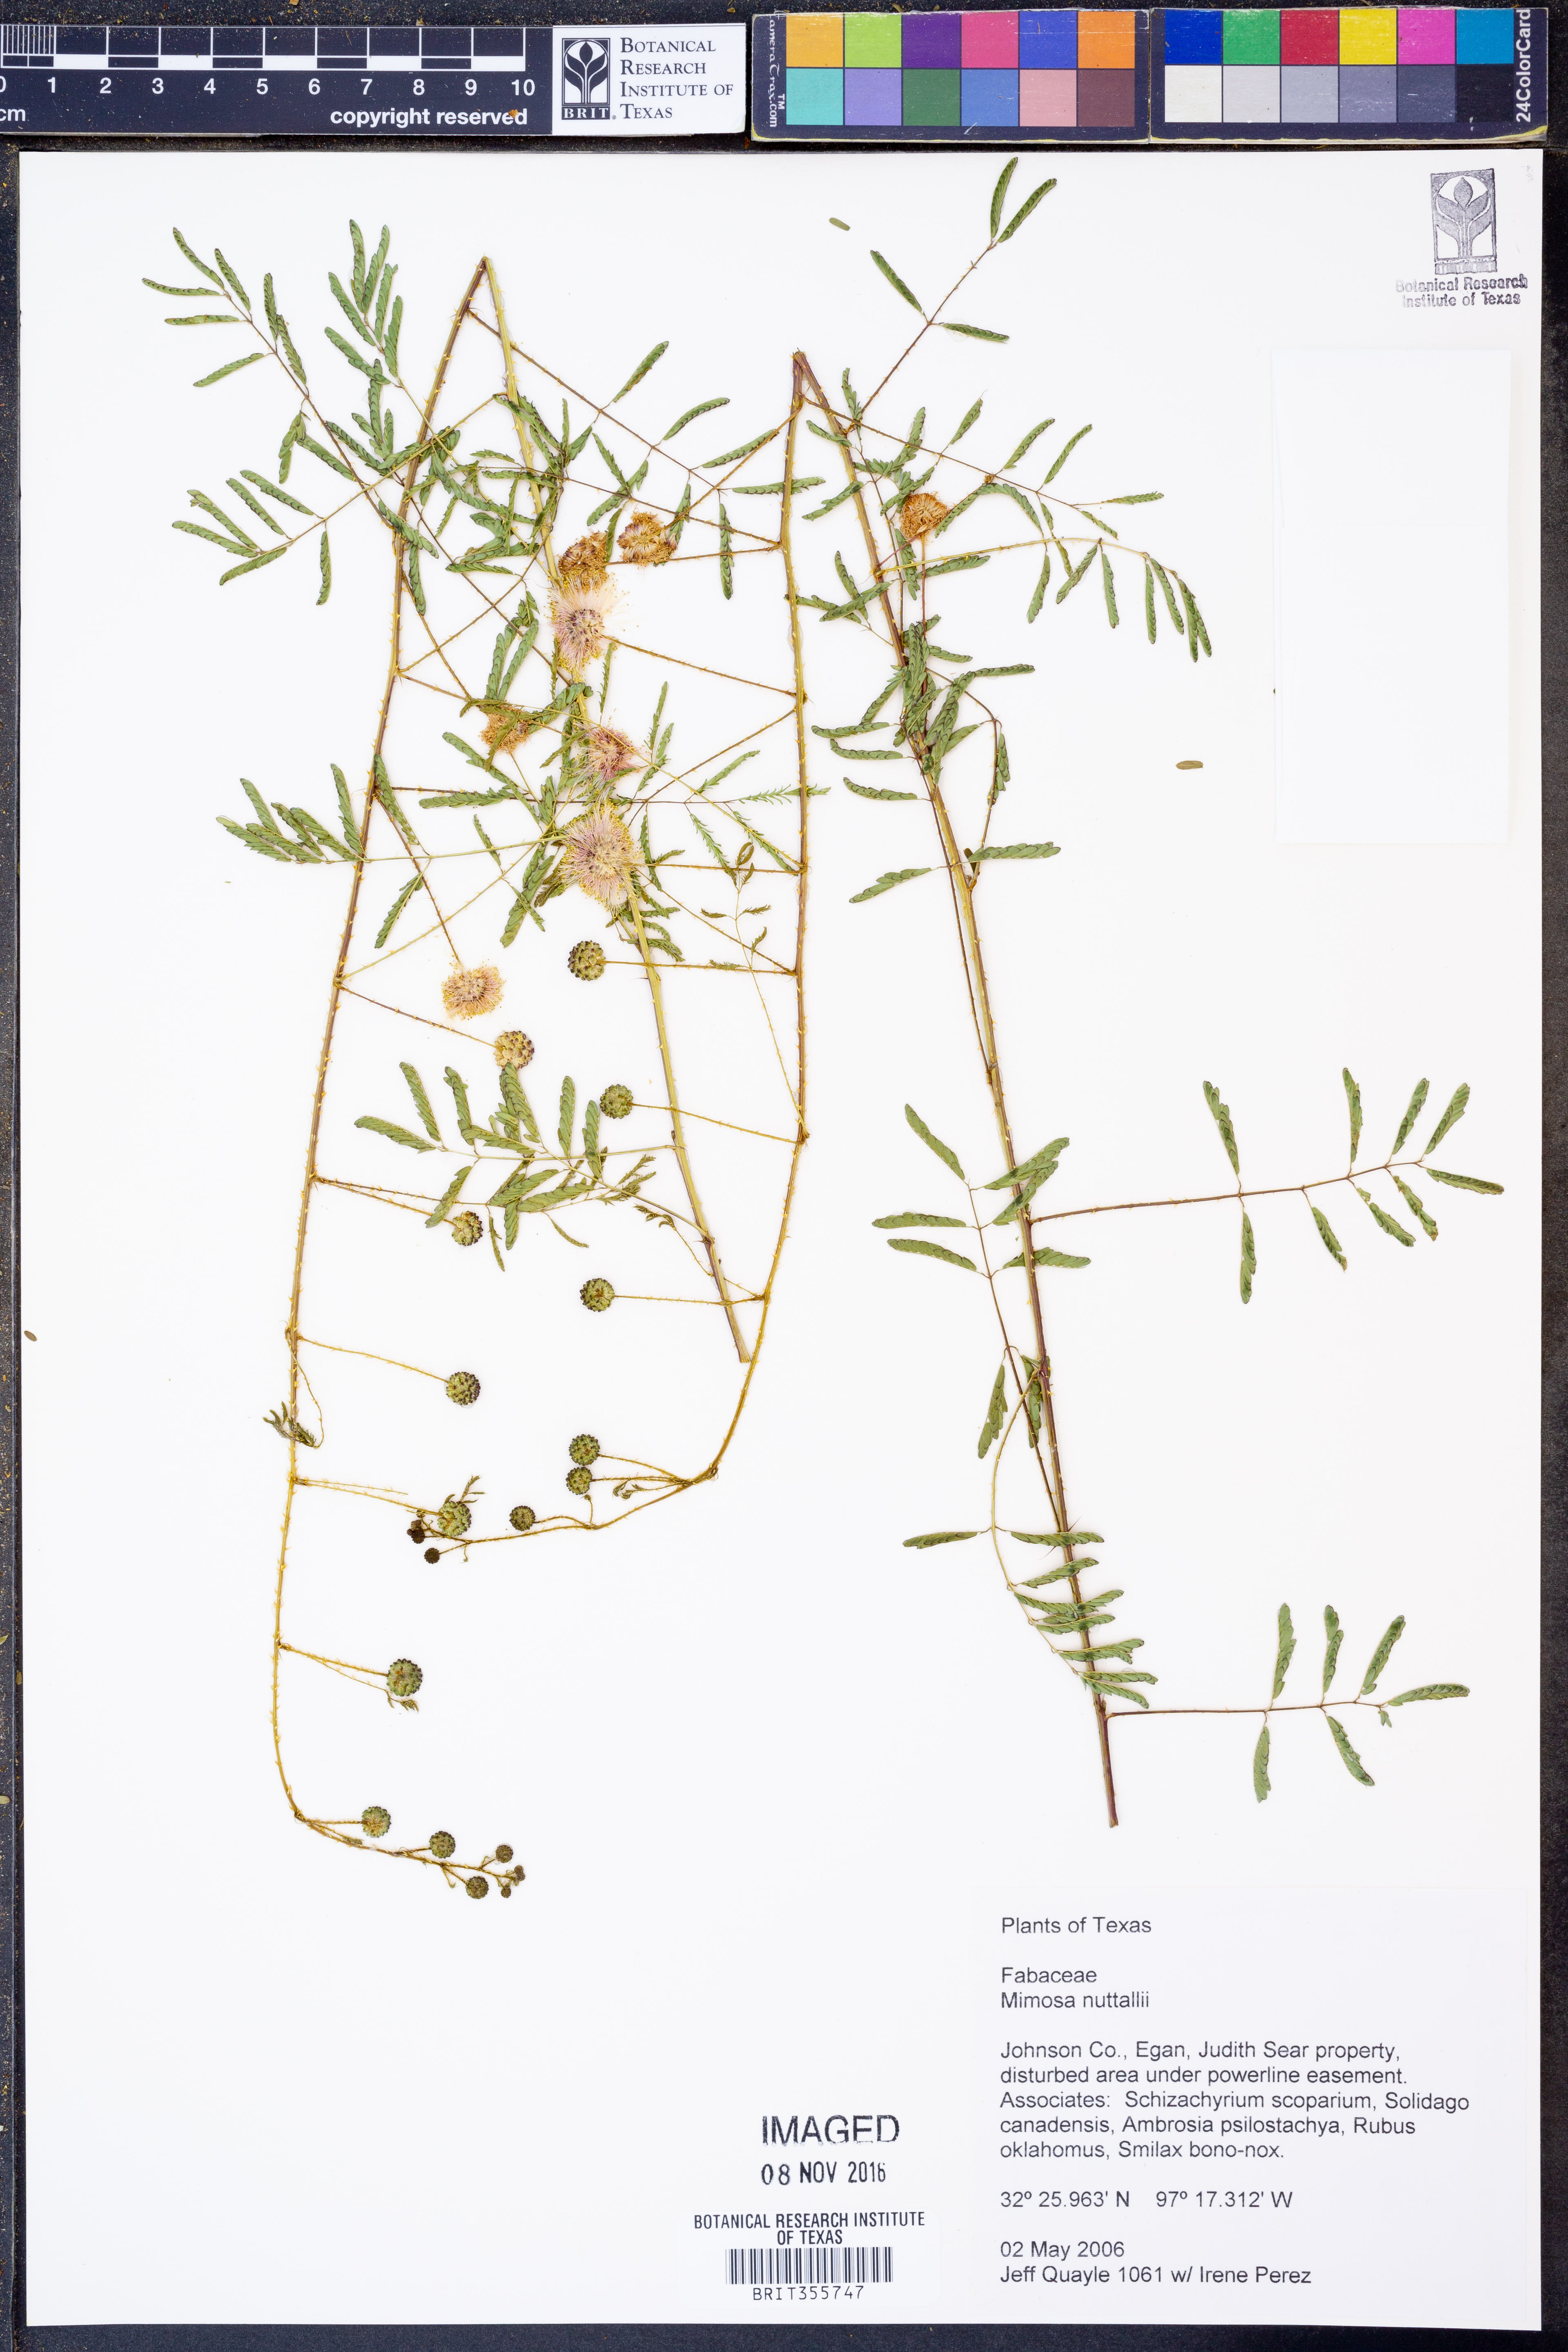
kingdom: Plantae
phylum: Tracheophyta
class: Magnoliopsida
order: Fabales
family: Fabaceae
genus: Mimosa
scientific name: Mimosa quadrivalvis
